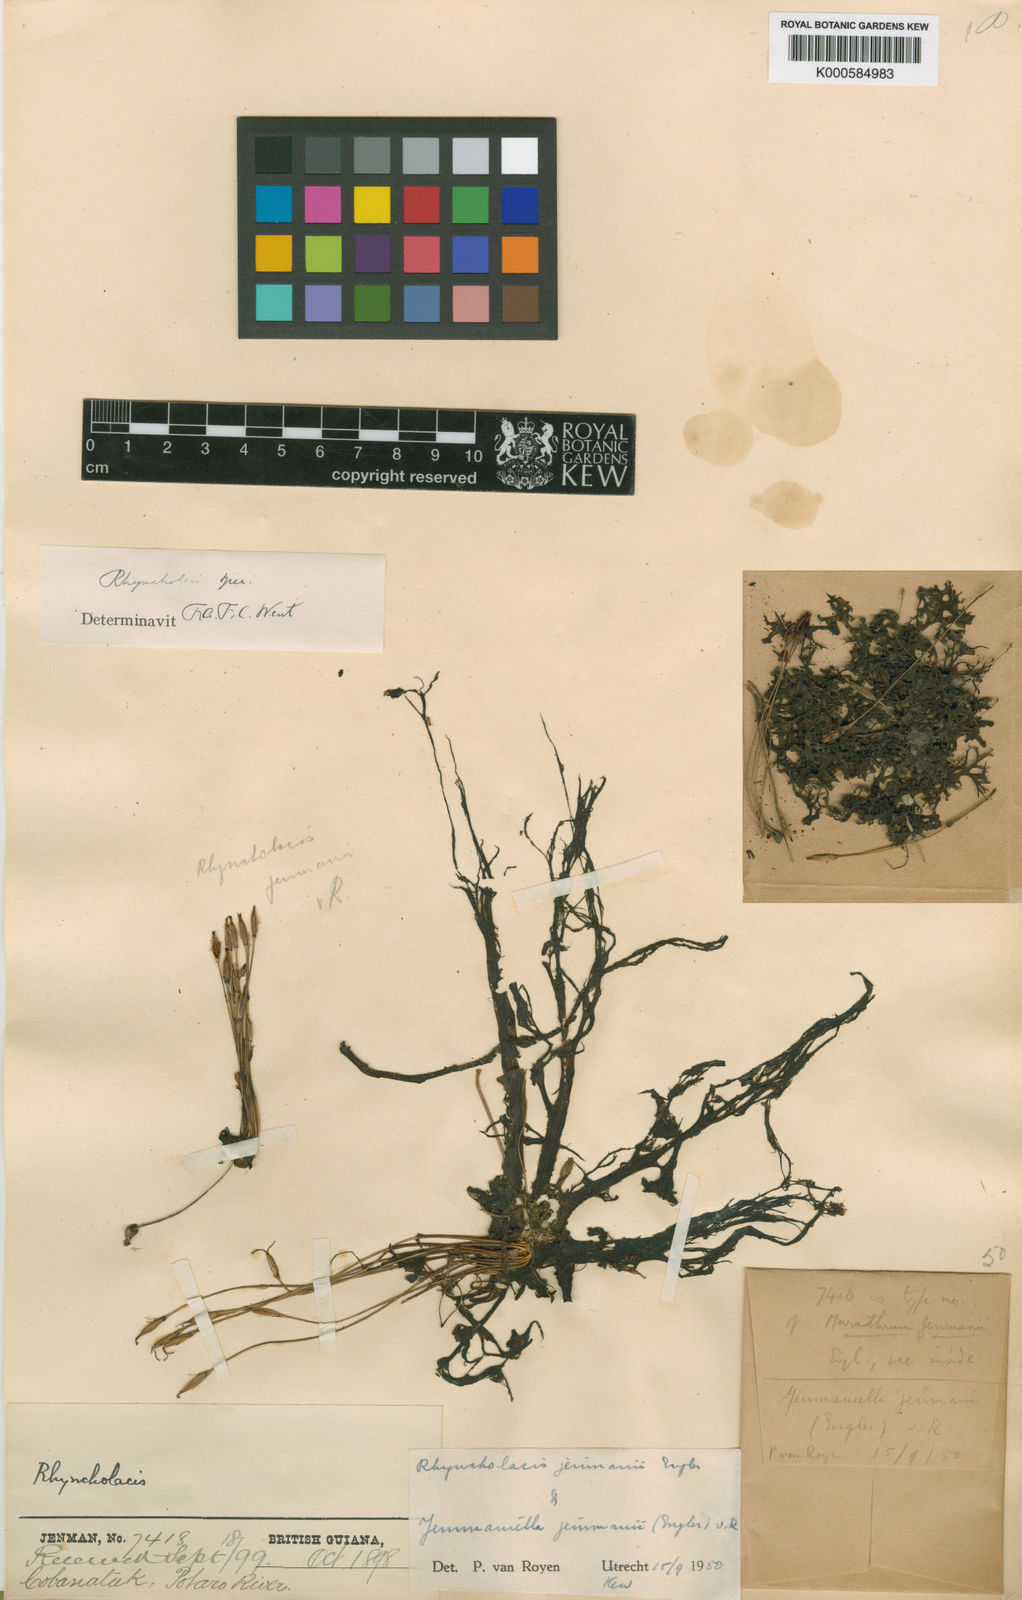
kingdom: Plantae
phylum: Tracheophyta
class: Magnoliopsida
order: Malpighiales
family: Podostemaceae
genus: Lophogyne
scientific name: Lophogyne tridactylitifolia
